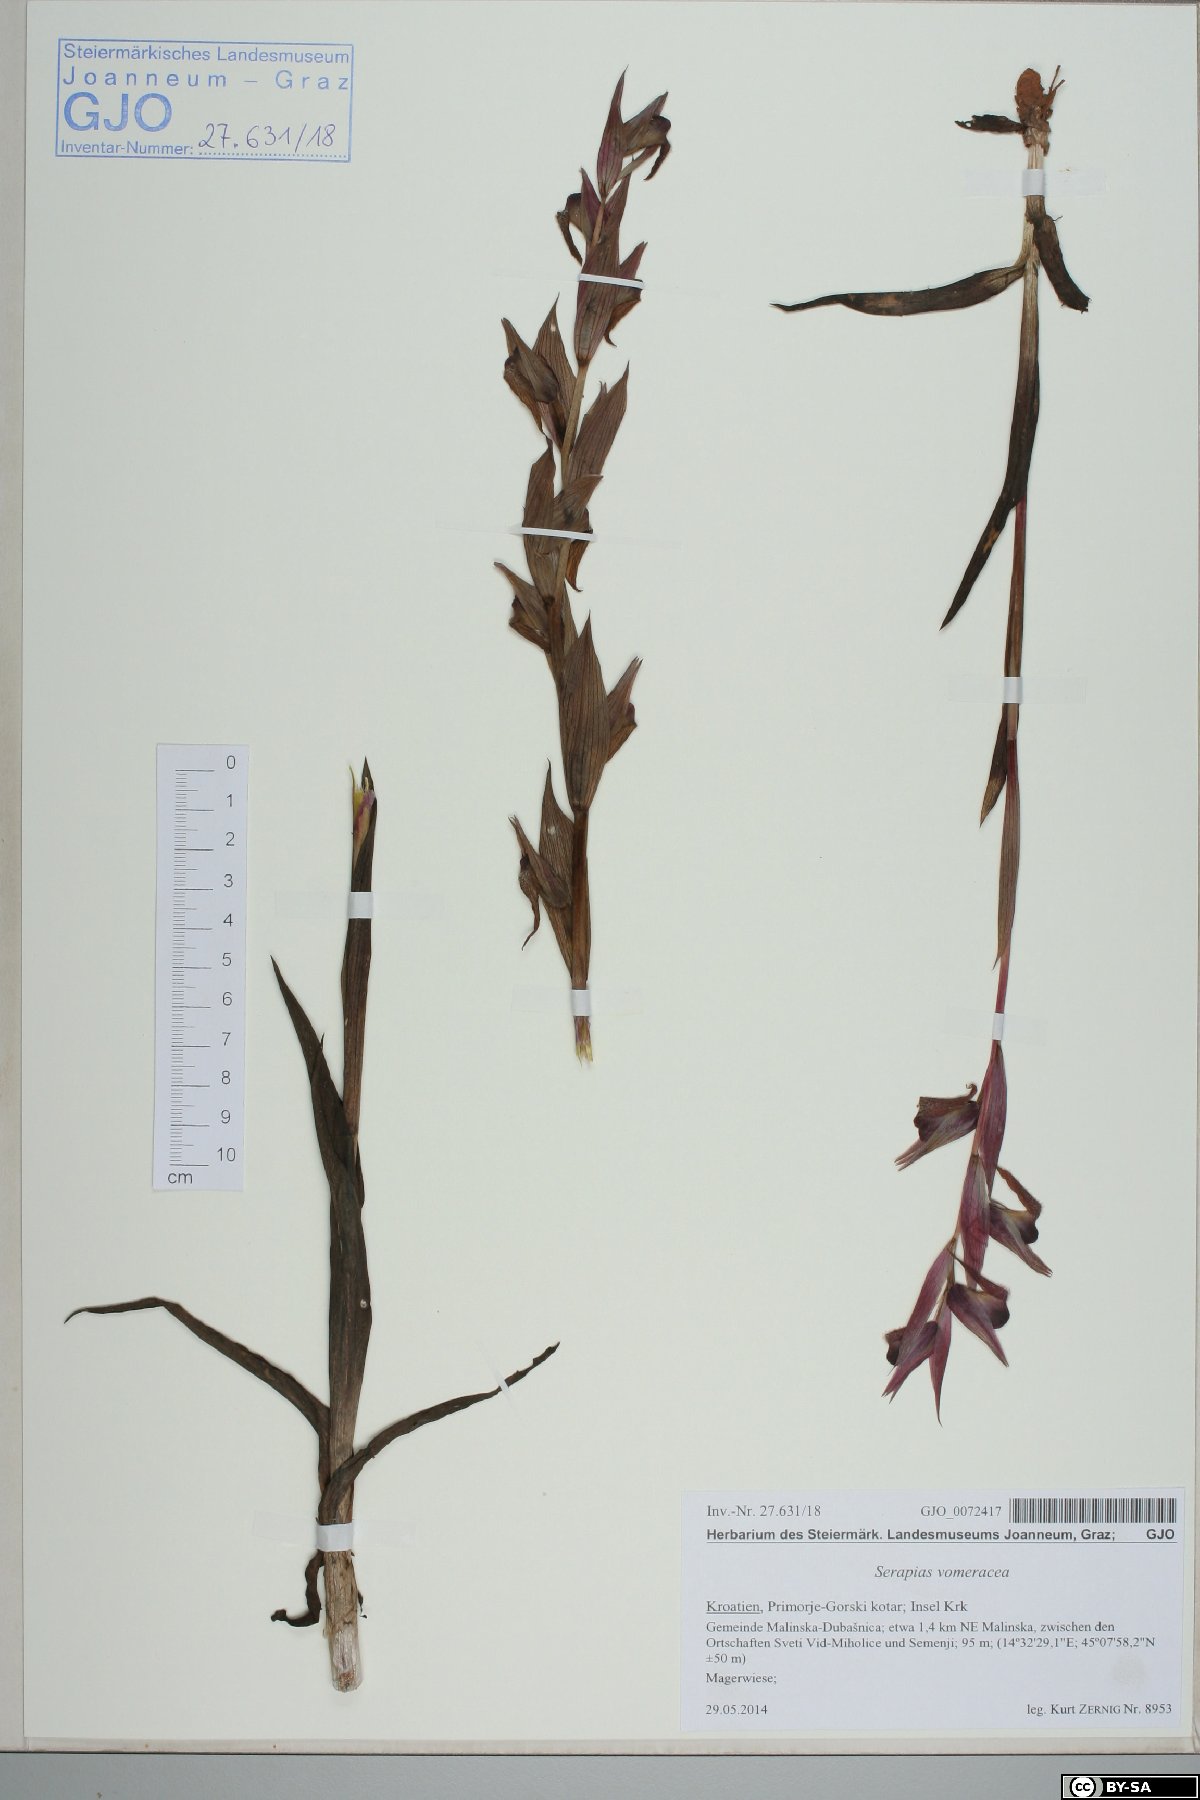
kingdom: Plantae
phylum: Tracheophyta
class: Liliopsida
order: Asparagales
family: Orchidaceae
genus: Serapias
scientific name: Serapias vomeracea
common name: Long-lipped tongue-orchid
